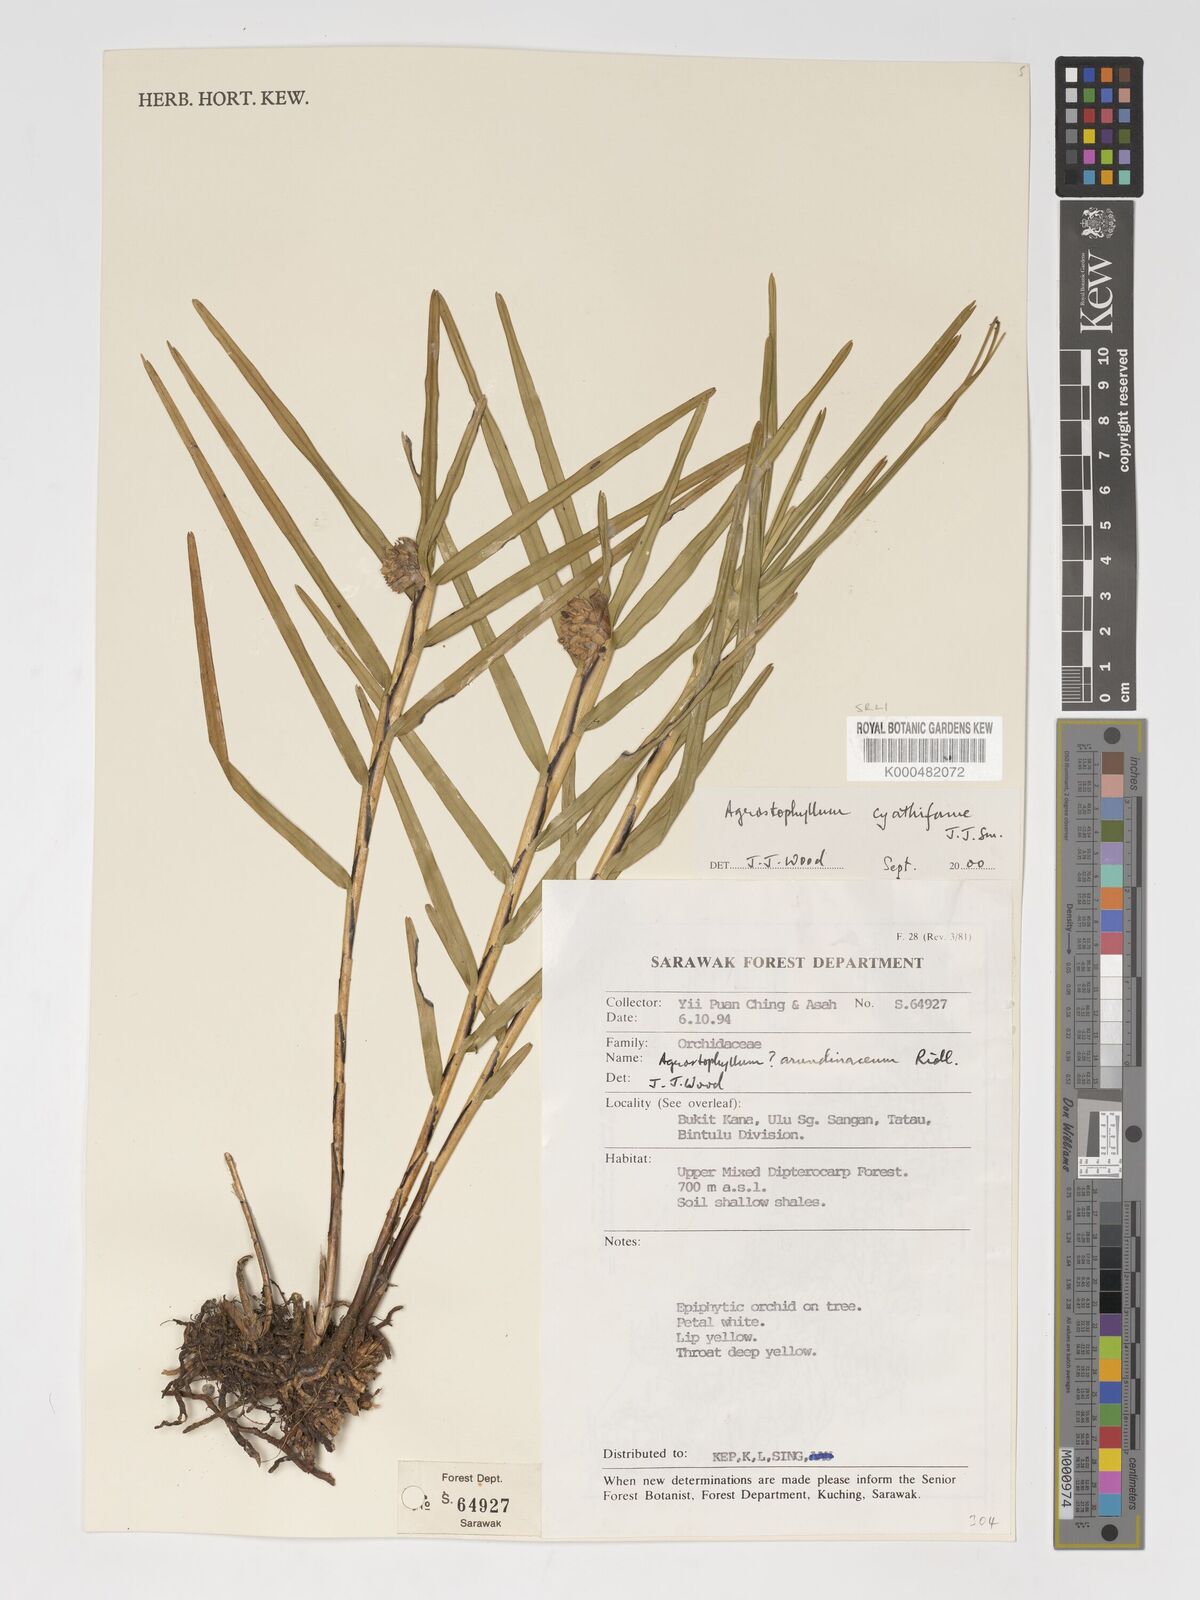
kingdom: Plantae
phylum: Tracheophyta
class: Liliopsida
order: Asparagales
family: Orchidaceae
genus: Agrostophyllum
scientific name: Agrostophyllum cyathiforme
